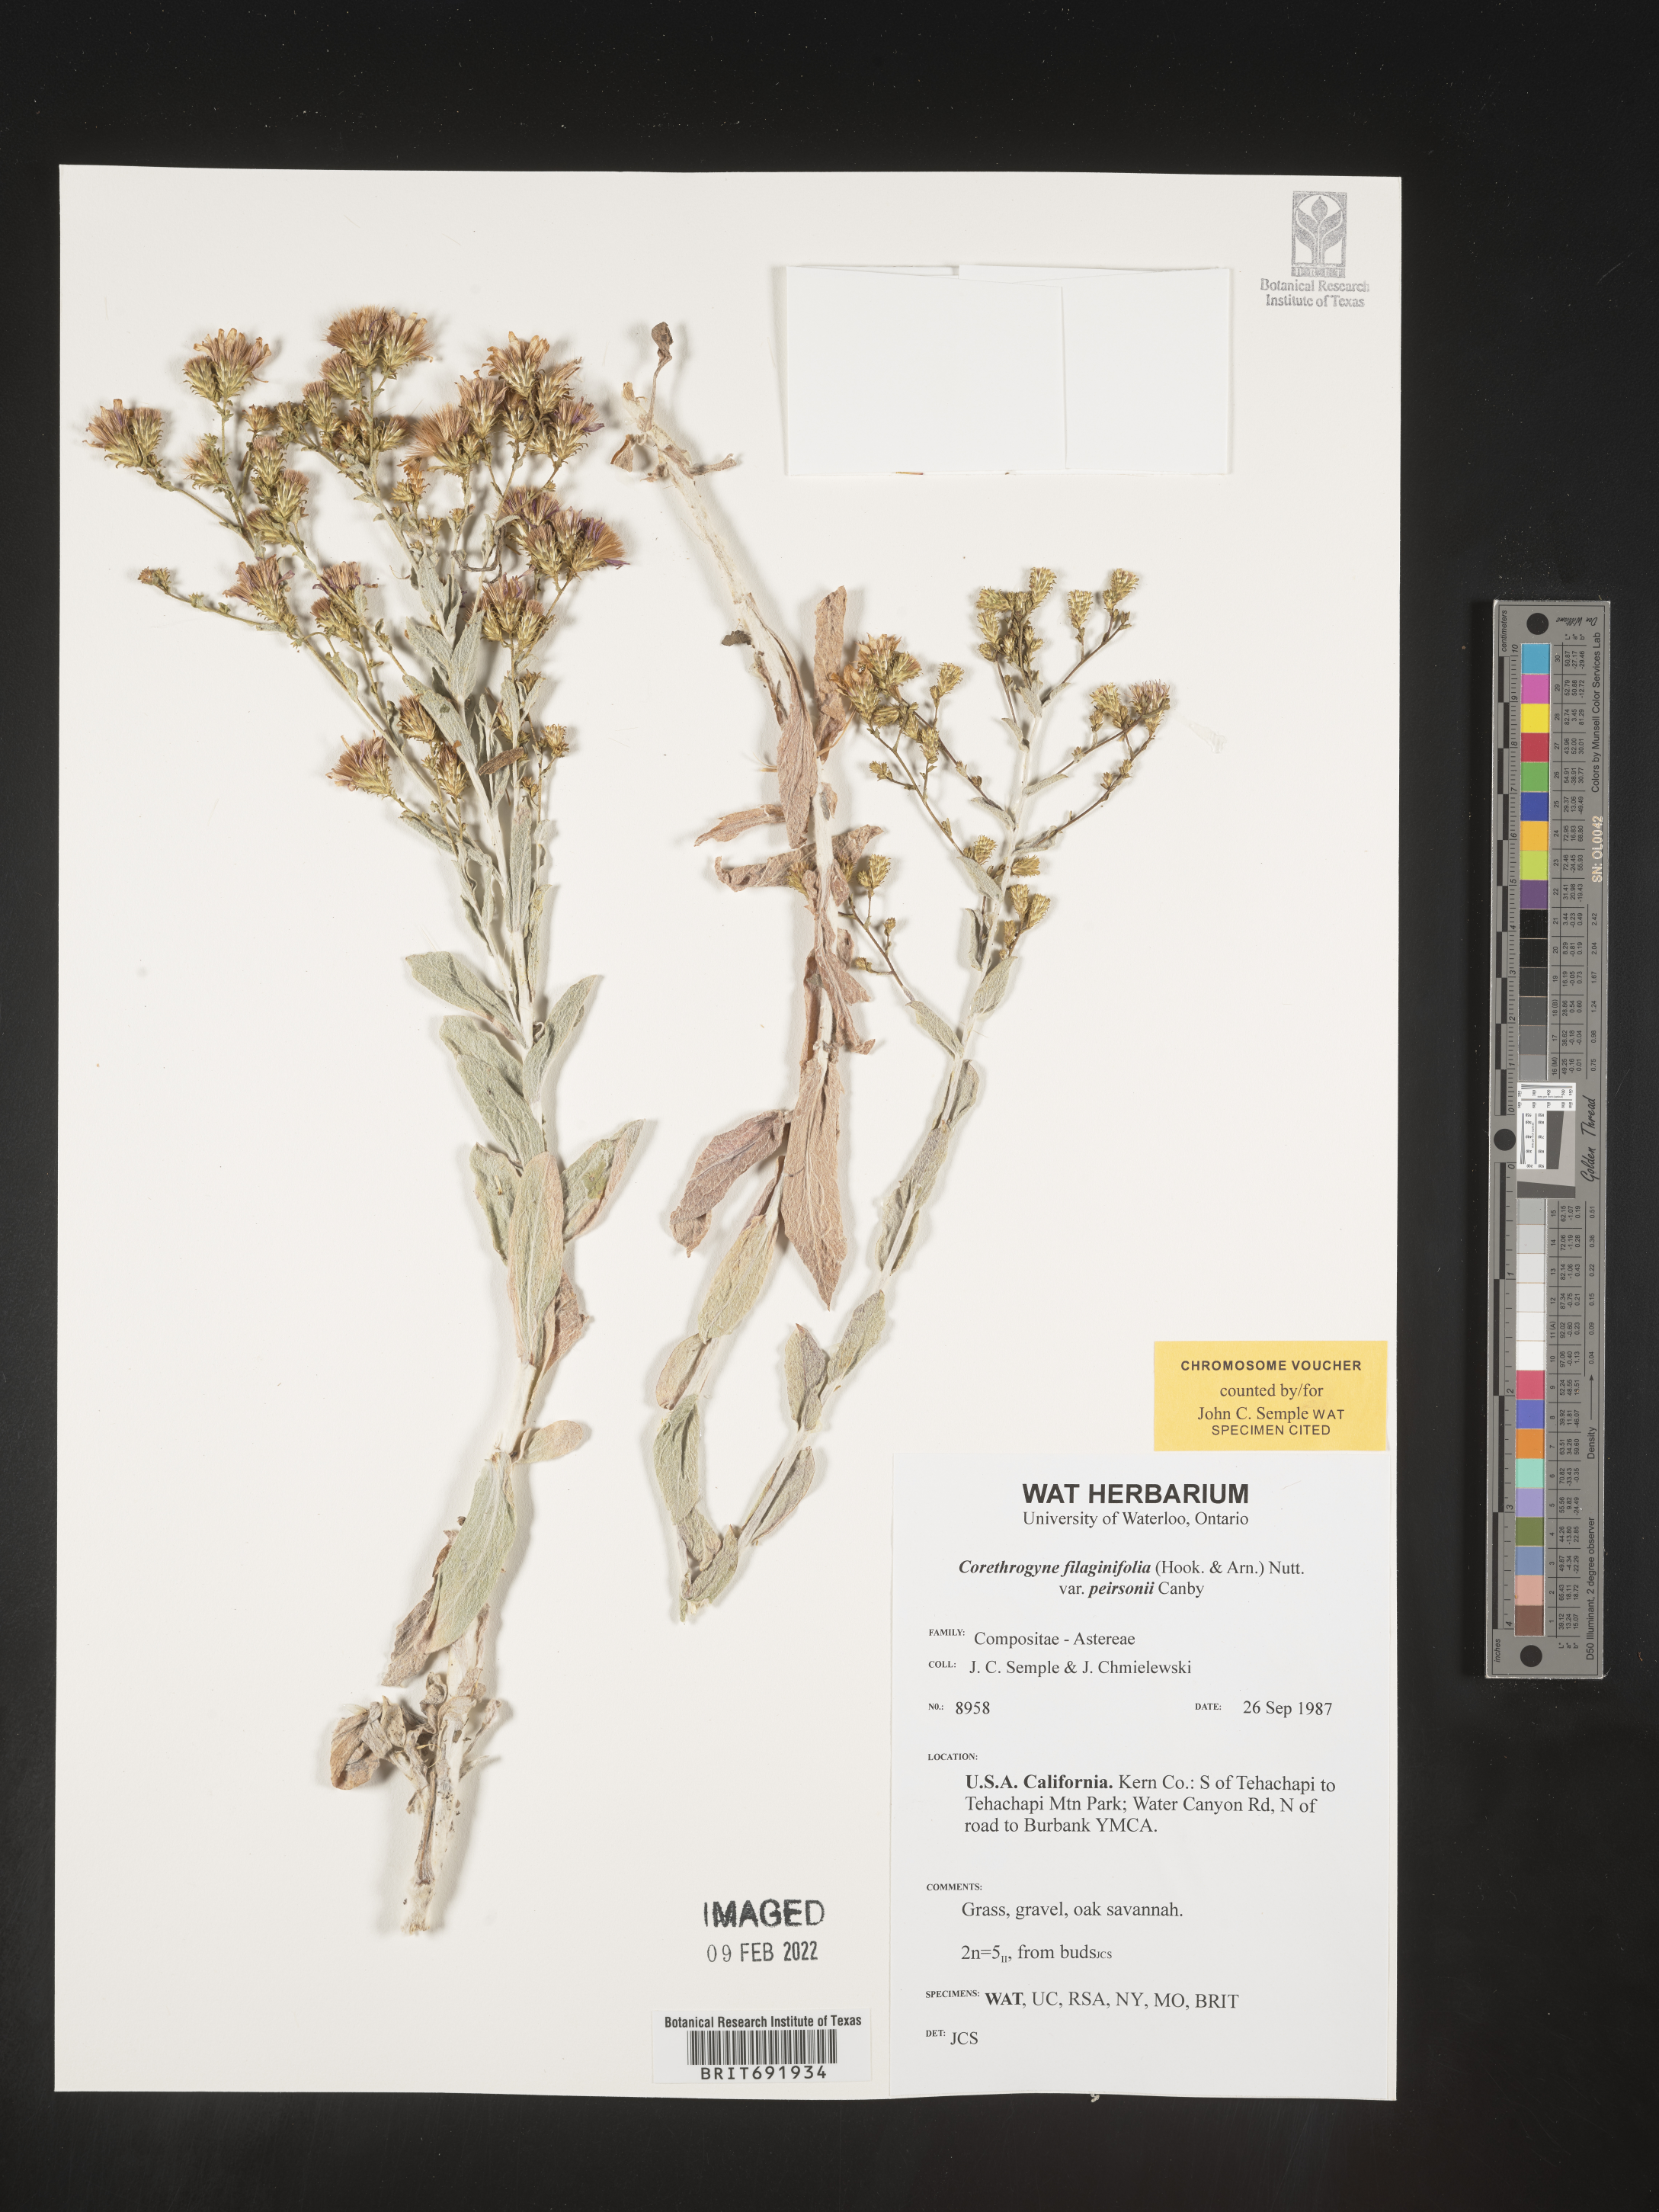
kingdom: Plantae
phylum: Tracheophyta
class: Magnoliopsida
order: Asterales
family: Asteraceae
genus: Corethrogyne
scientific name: Corethrogyne
